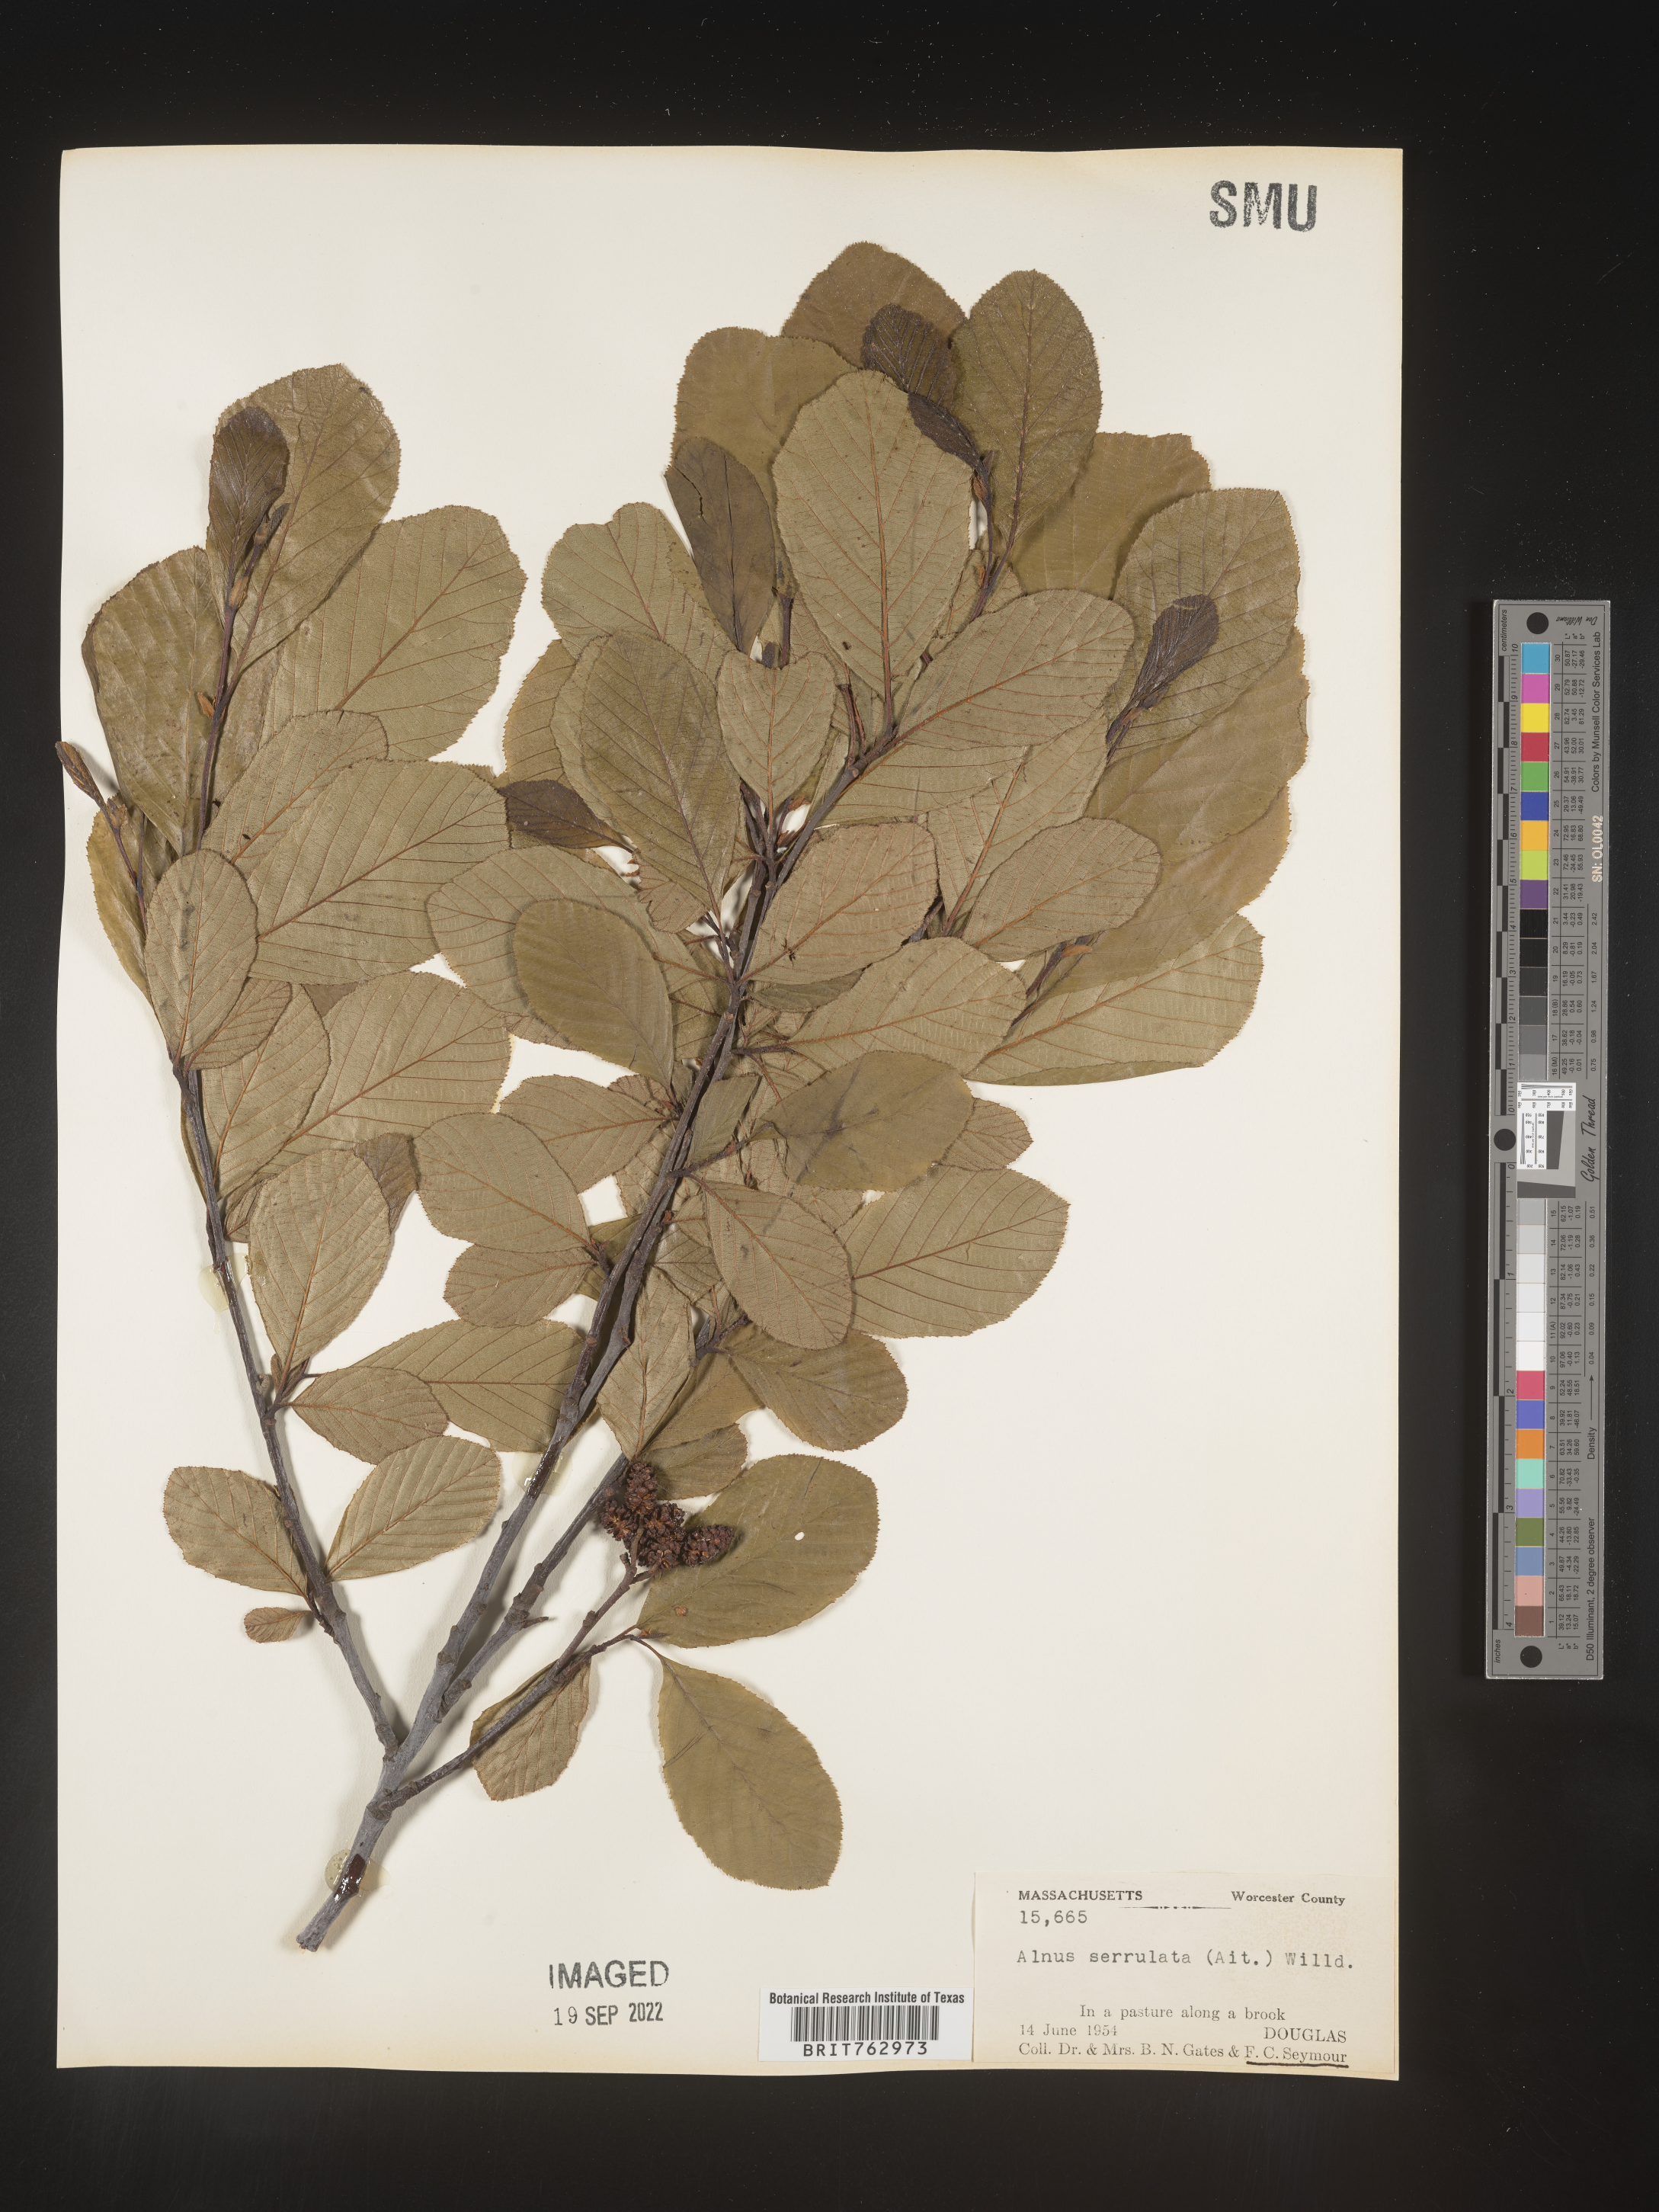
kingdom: Plantae
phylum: Tracheophyta
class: Magnoliopsida
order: Fagales
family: Betulaceae
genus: Alnus
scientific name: Alnus serrulata
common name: Hazel alder
